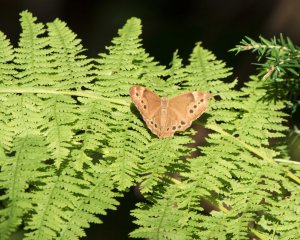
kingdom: Animalia
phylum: Arthropoda
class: Insecta
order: Lepidoptera
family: Nymphalidae
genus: Lethe
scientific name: Lethe anthedon
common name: Northern Pearly-Eye
